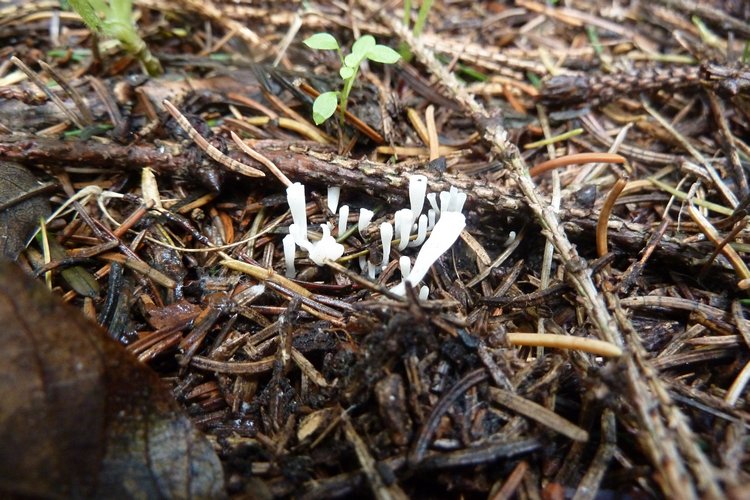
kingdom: Fungi
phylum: Basidiomycota
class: Agaricomycetes
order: Agaricales
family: Clavariaceae
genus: Clavicorona
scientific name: Clavicorona taxophila
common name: trompetkølle
